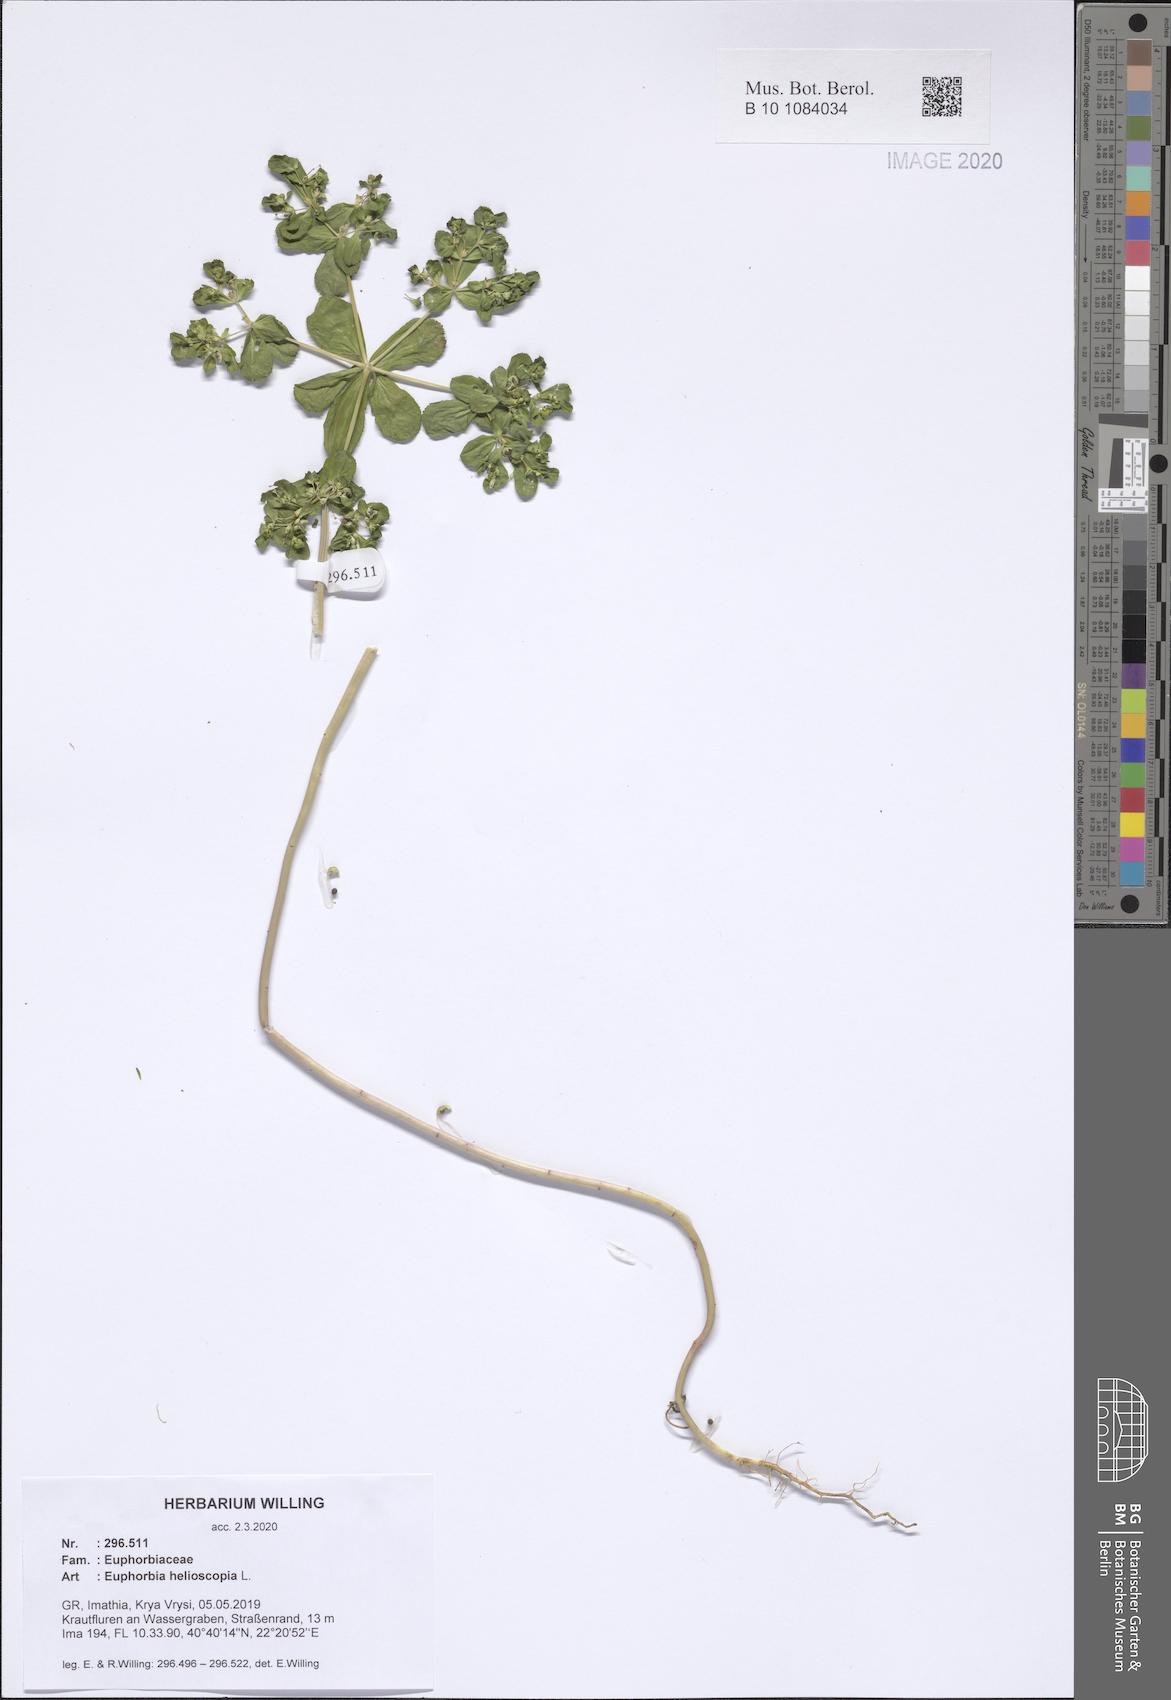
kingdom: Plantae
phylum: Tracheophyta
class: Magnoliopsida
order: Malpighiales
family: Euphorbiaceae
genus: Euphorbia
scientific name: Euphorbia helioscopia
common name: Sun spurge
